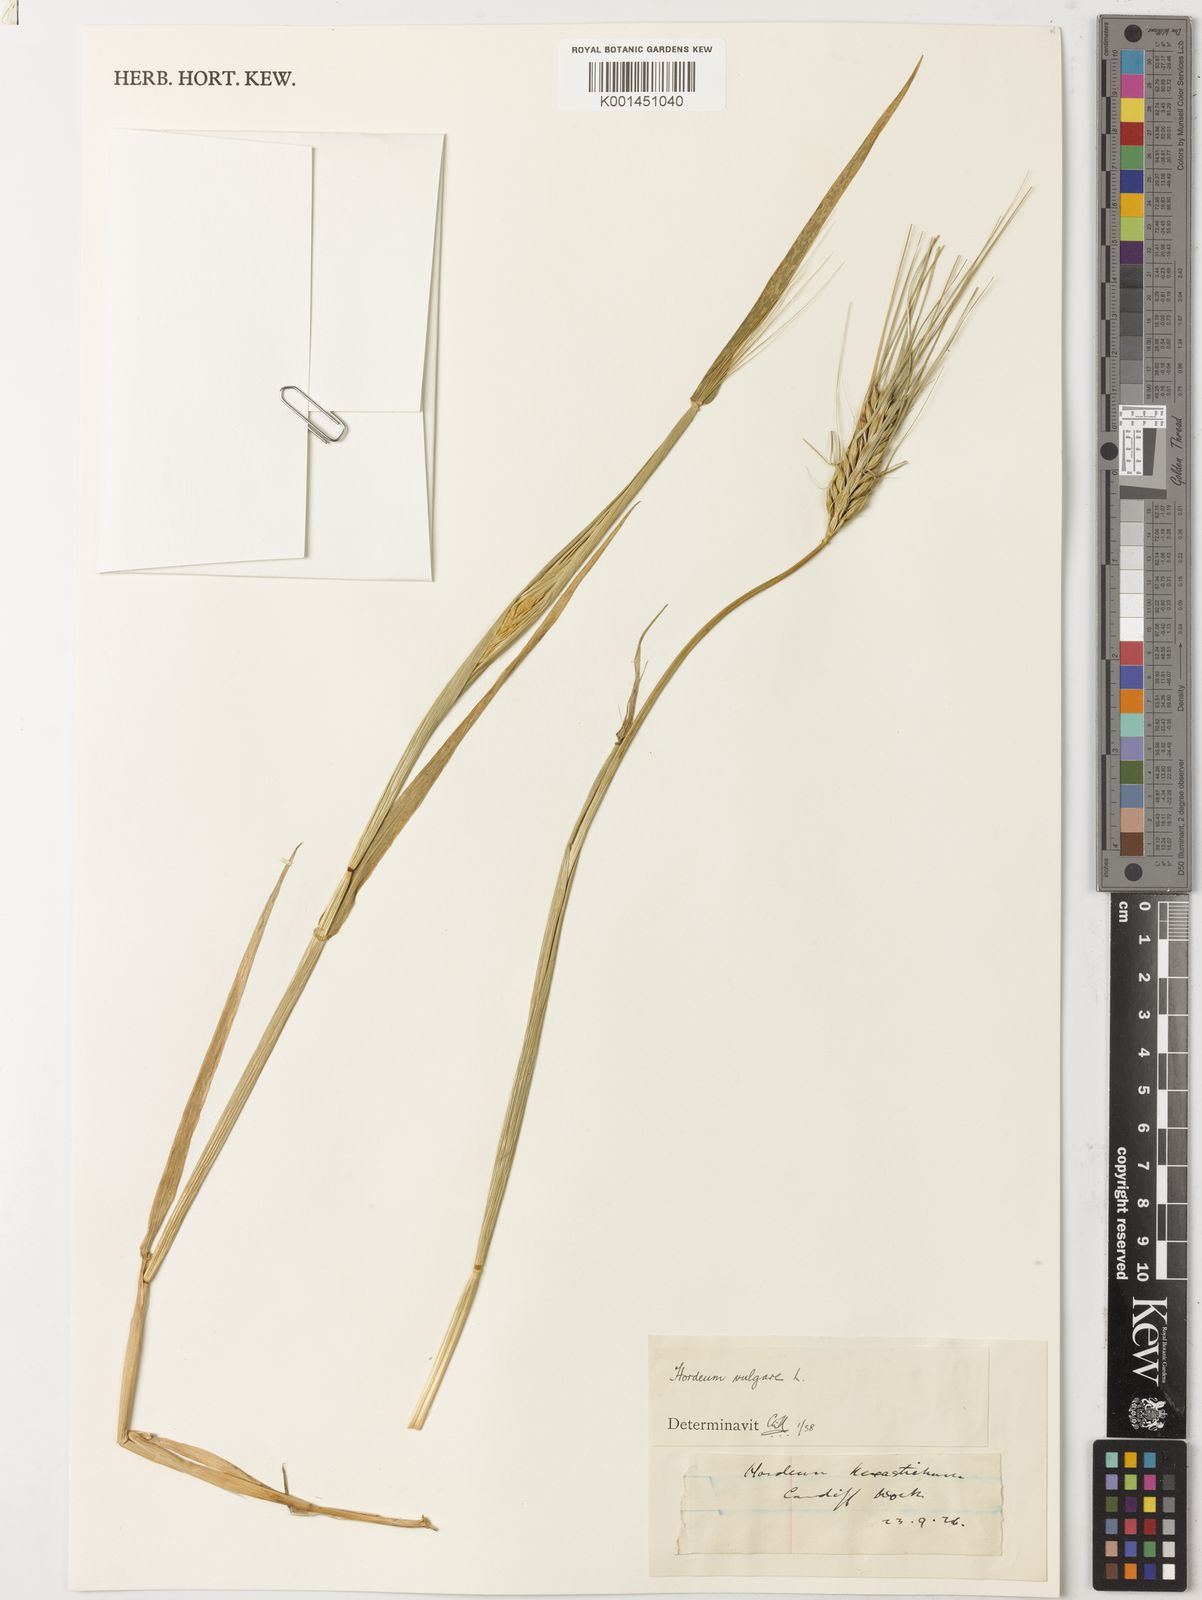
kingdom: Plantae
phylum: Tracheophyta
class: Liliopsida
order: Poales
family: Poaceae
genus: Hordeum
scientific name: Hordeum vulgare
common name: Common barley
